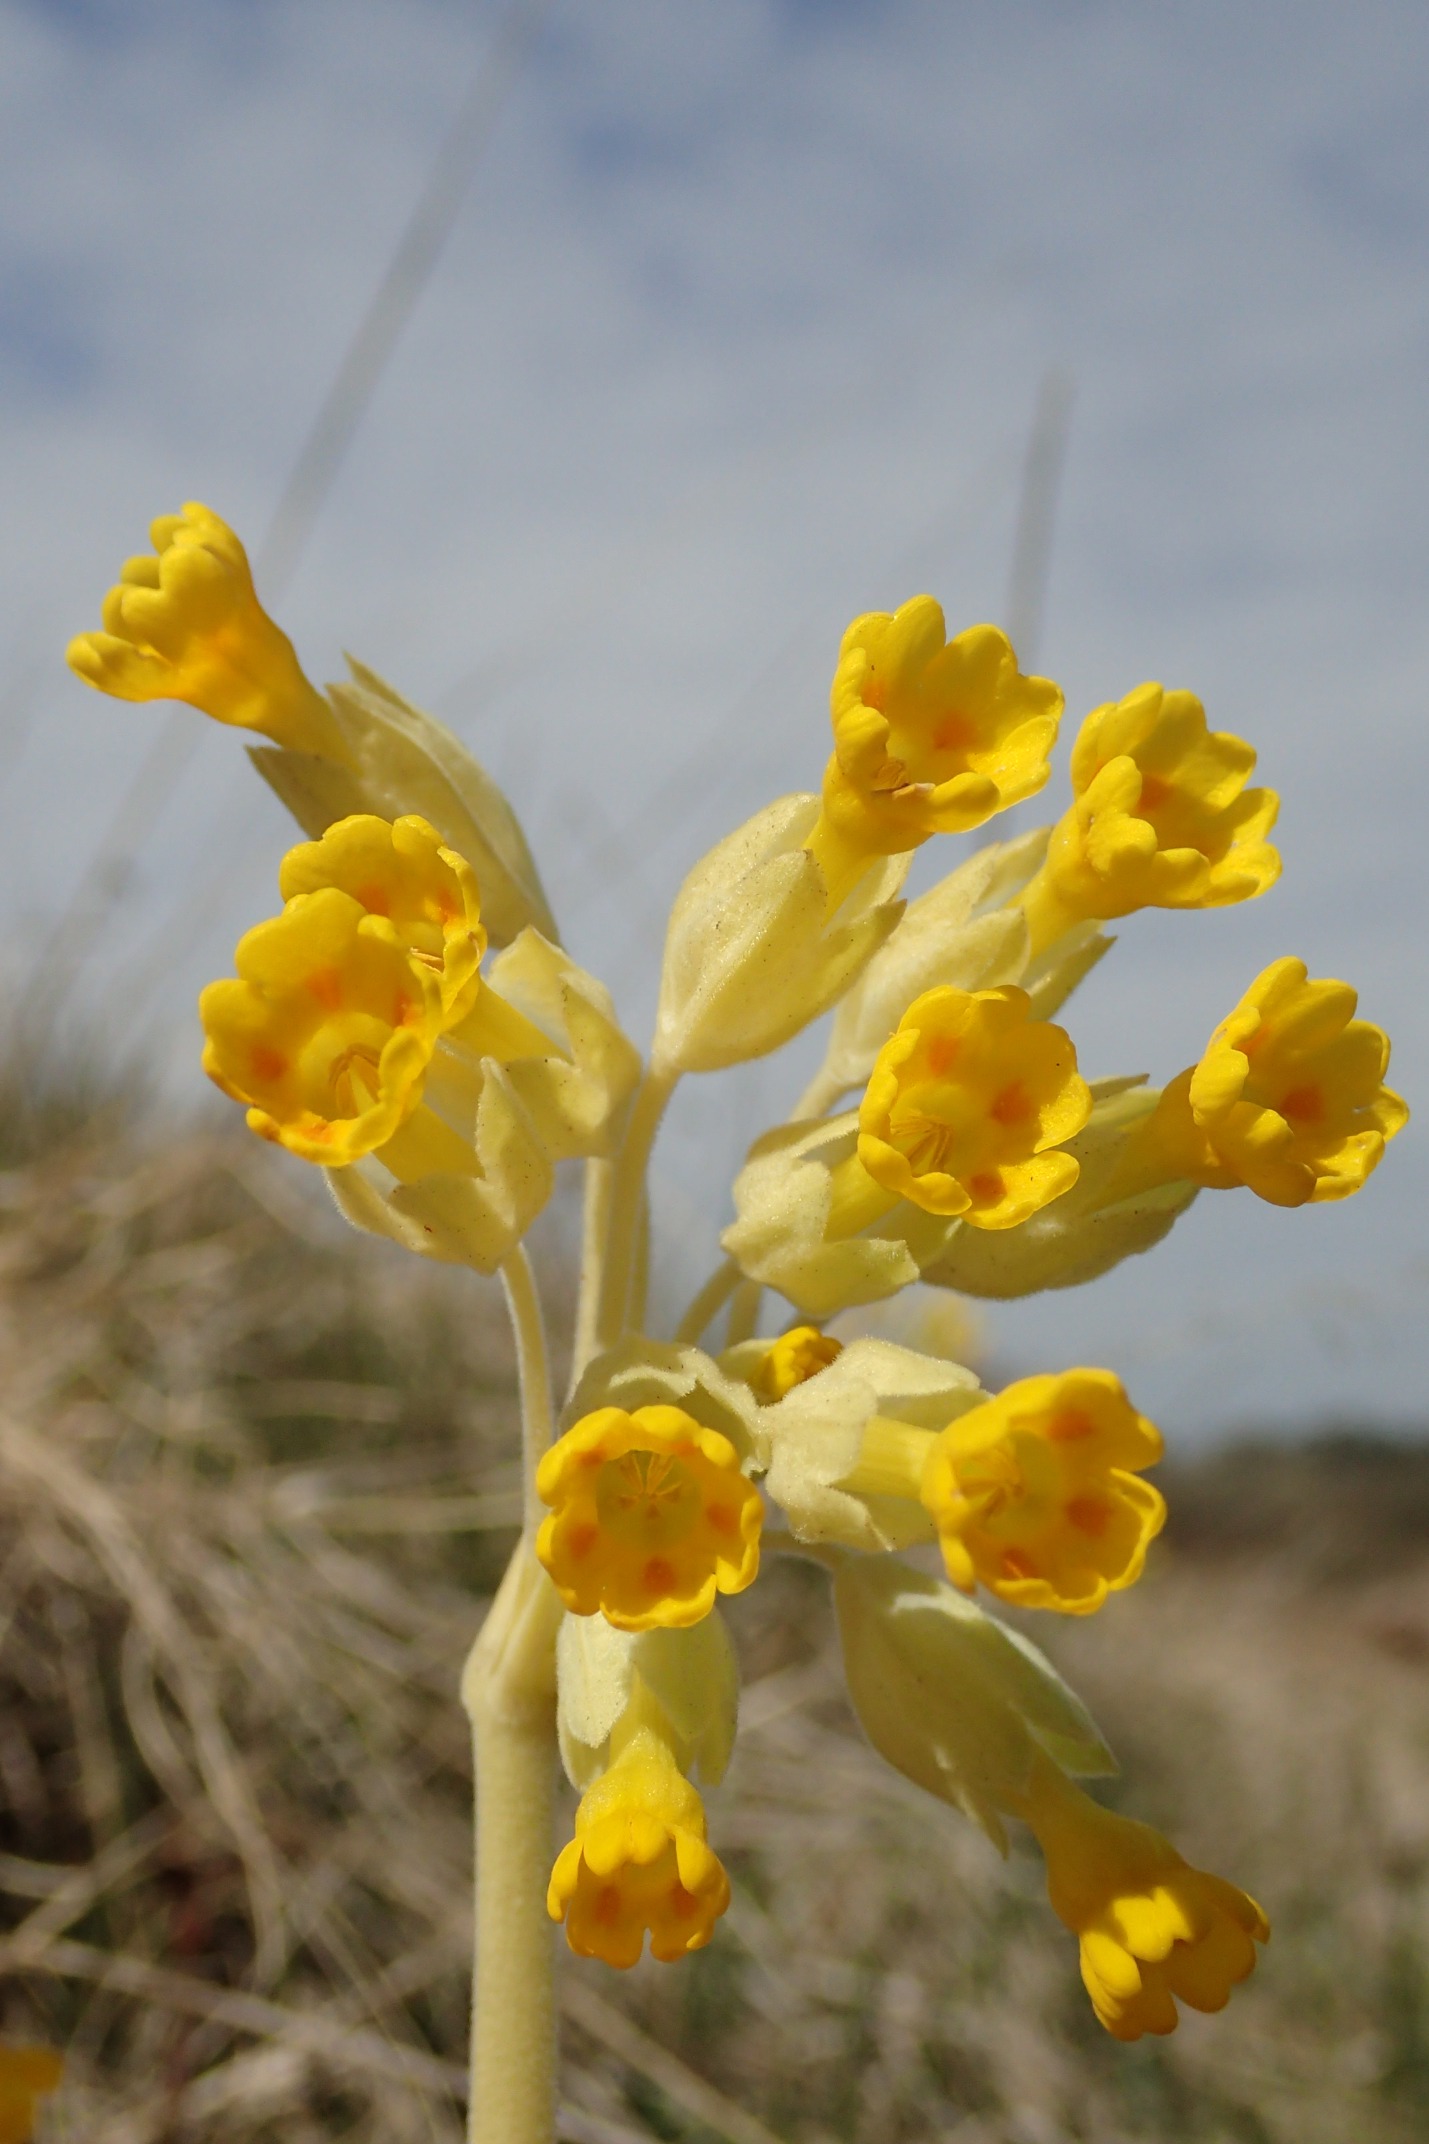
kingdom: Plantae
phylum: Tracheophyta
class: Magnoliopsida
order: Ericales
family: Primulaceae
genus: Primula
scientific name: Primula veris
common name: Hulkravet kodriver
